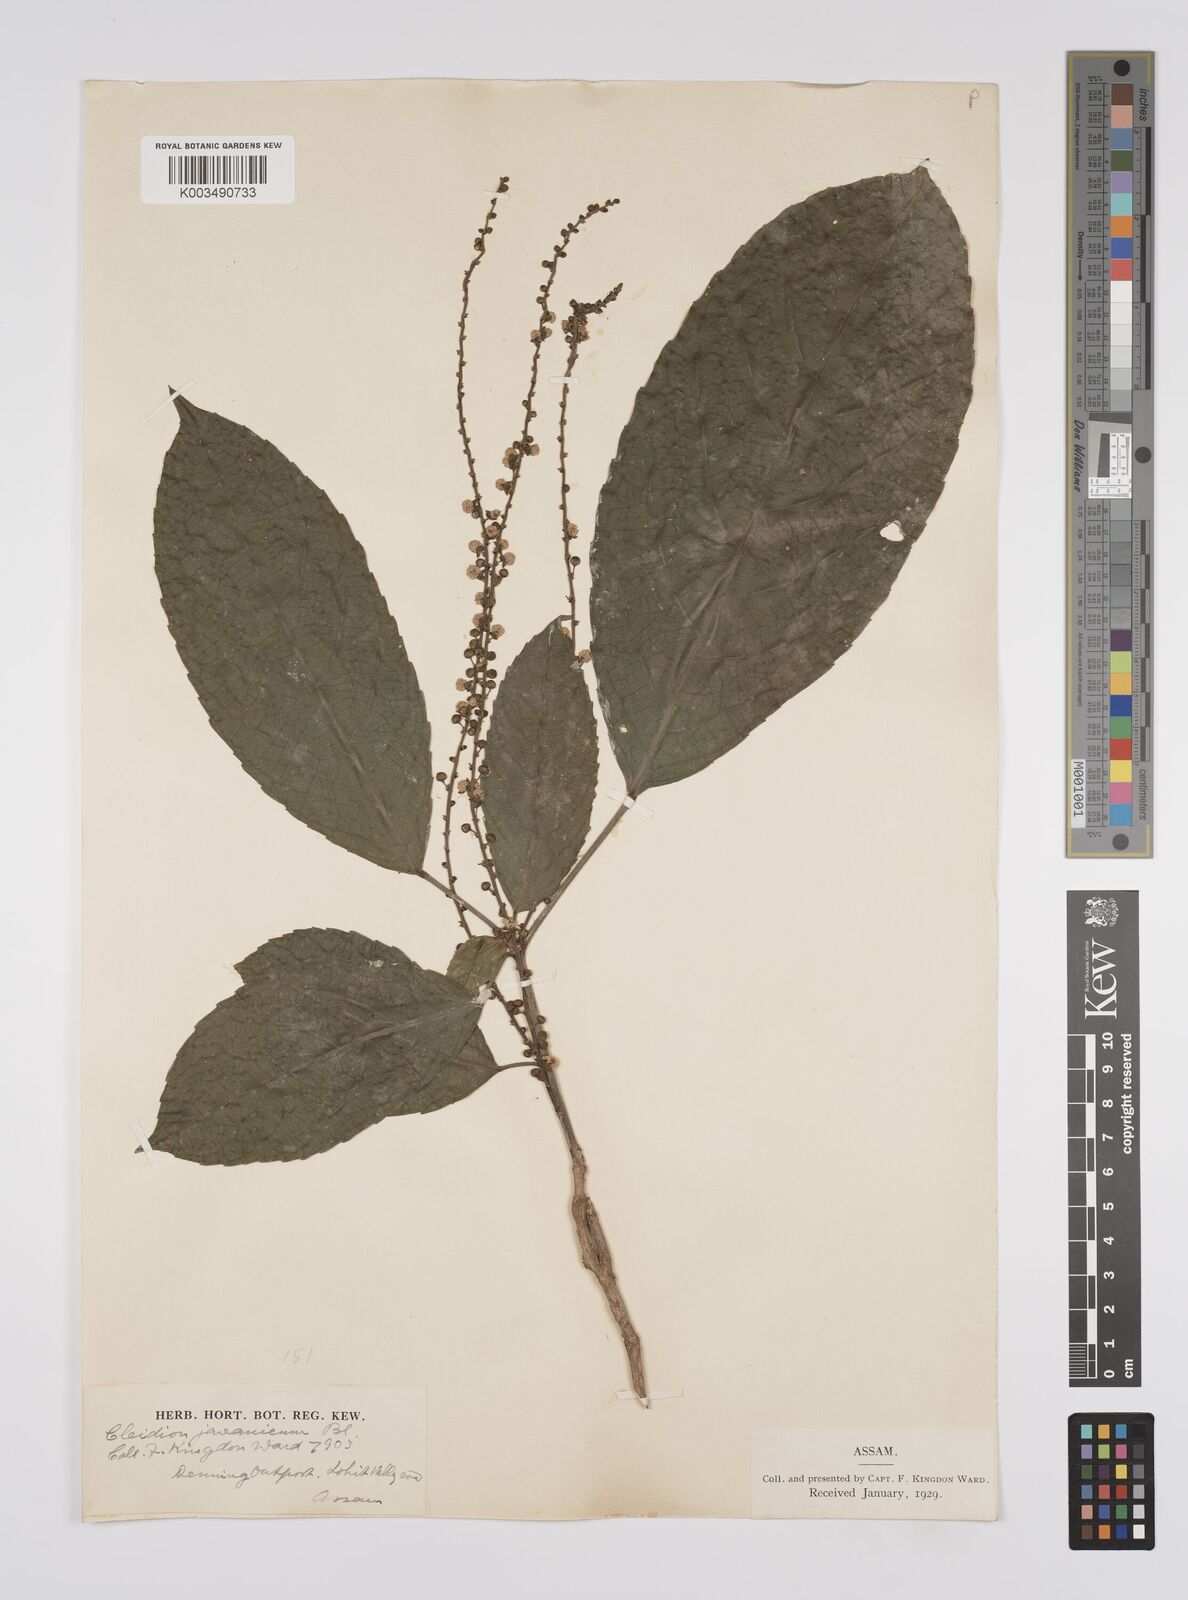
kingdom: Plantae
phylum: Tracheophyta
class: Magnoliopsida
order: Malpighiales
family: Euphorbiaceae
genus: Acalypha
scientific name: Acalypha spiciflora
